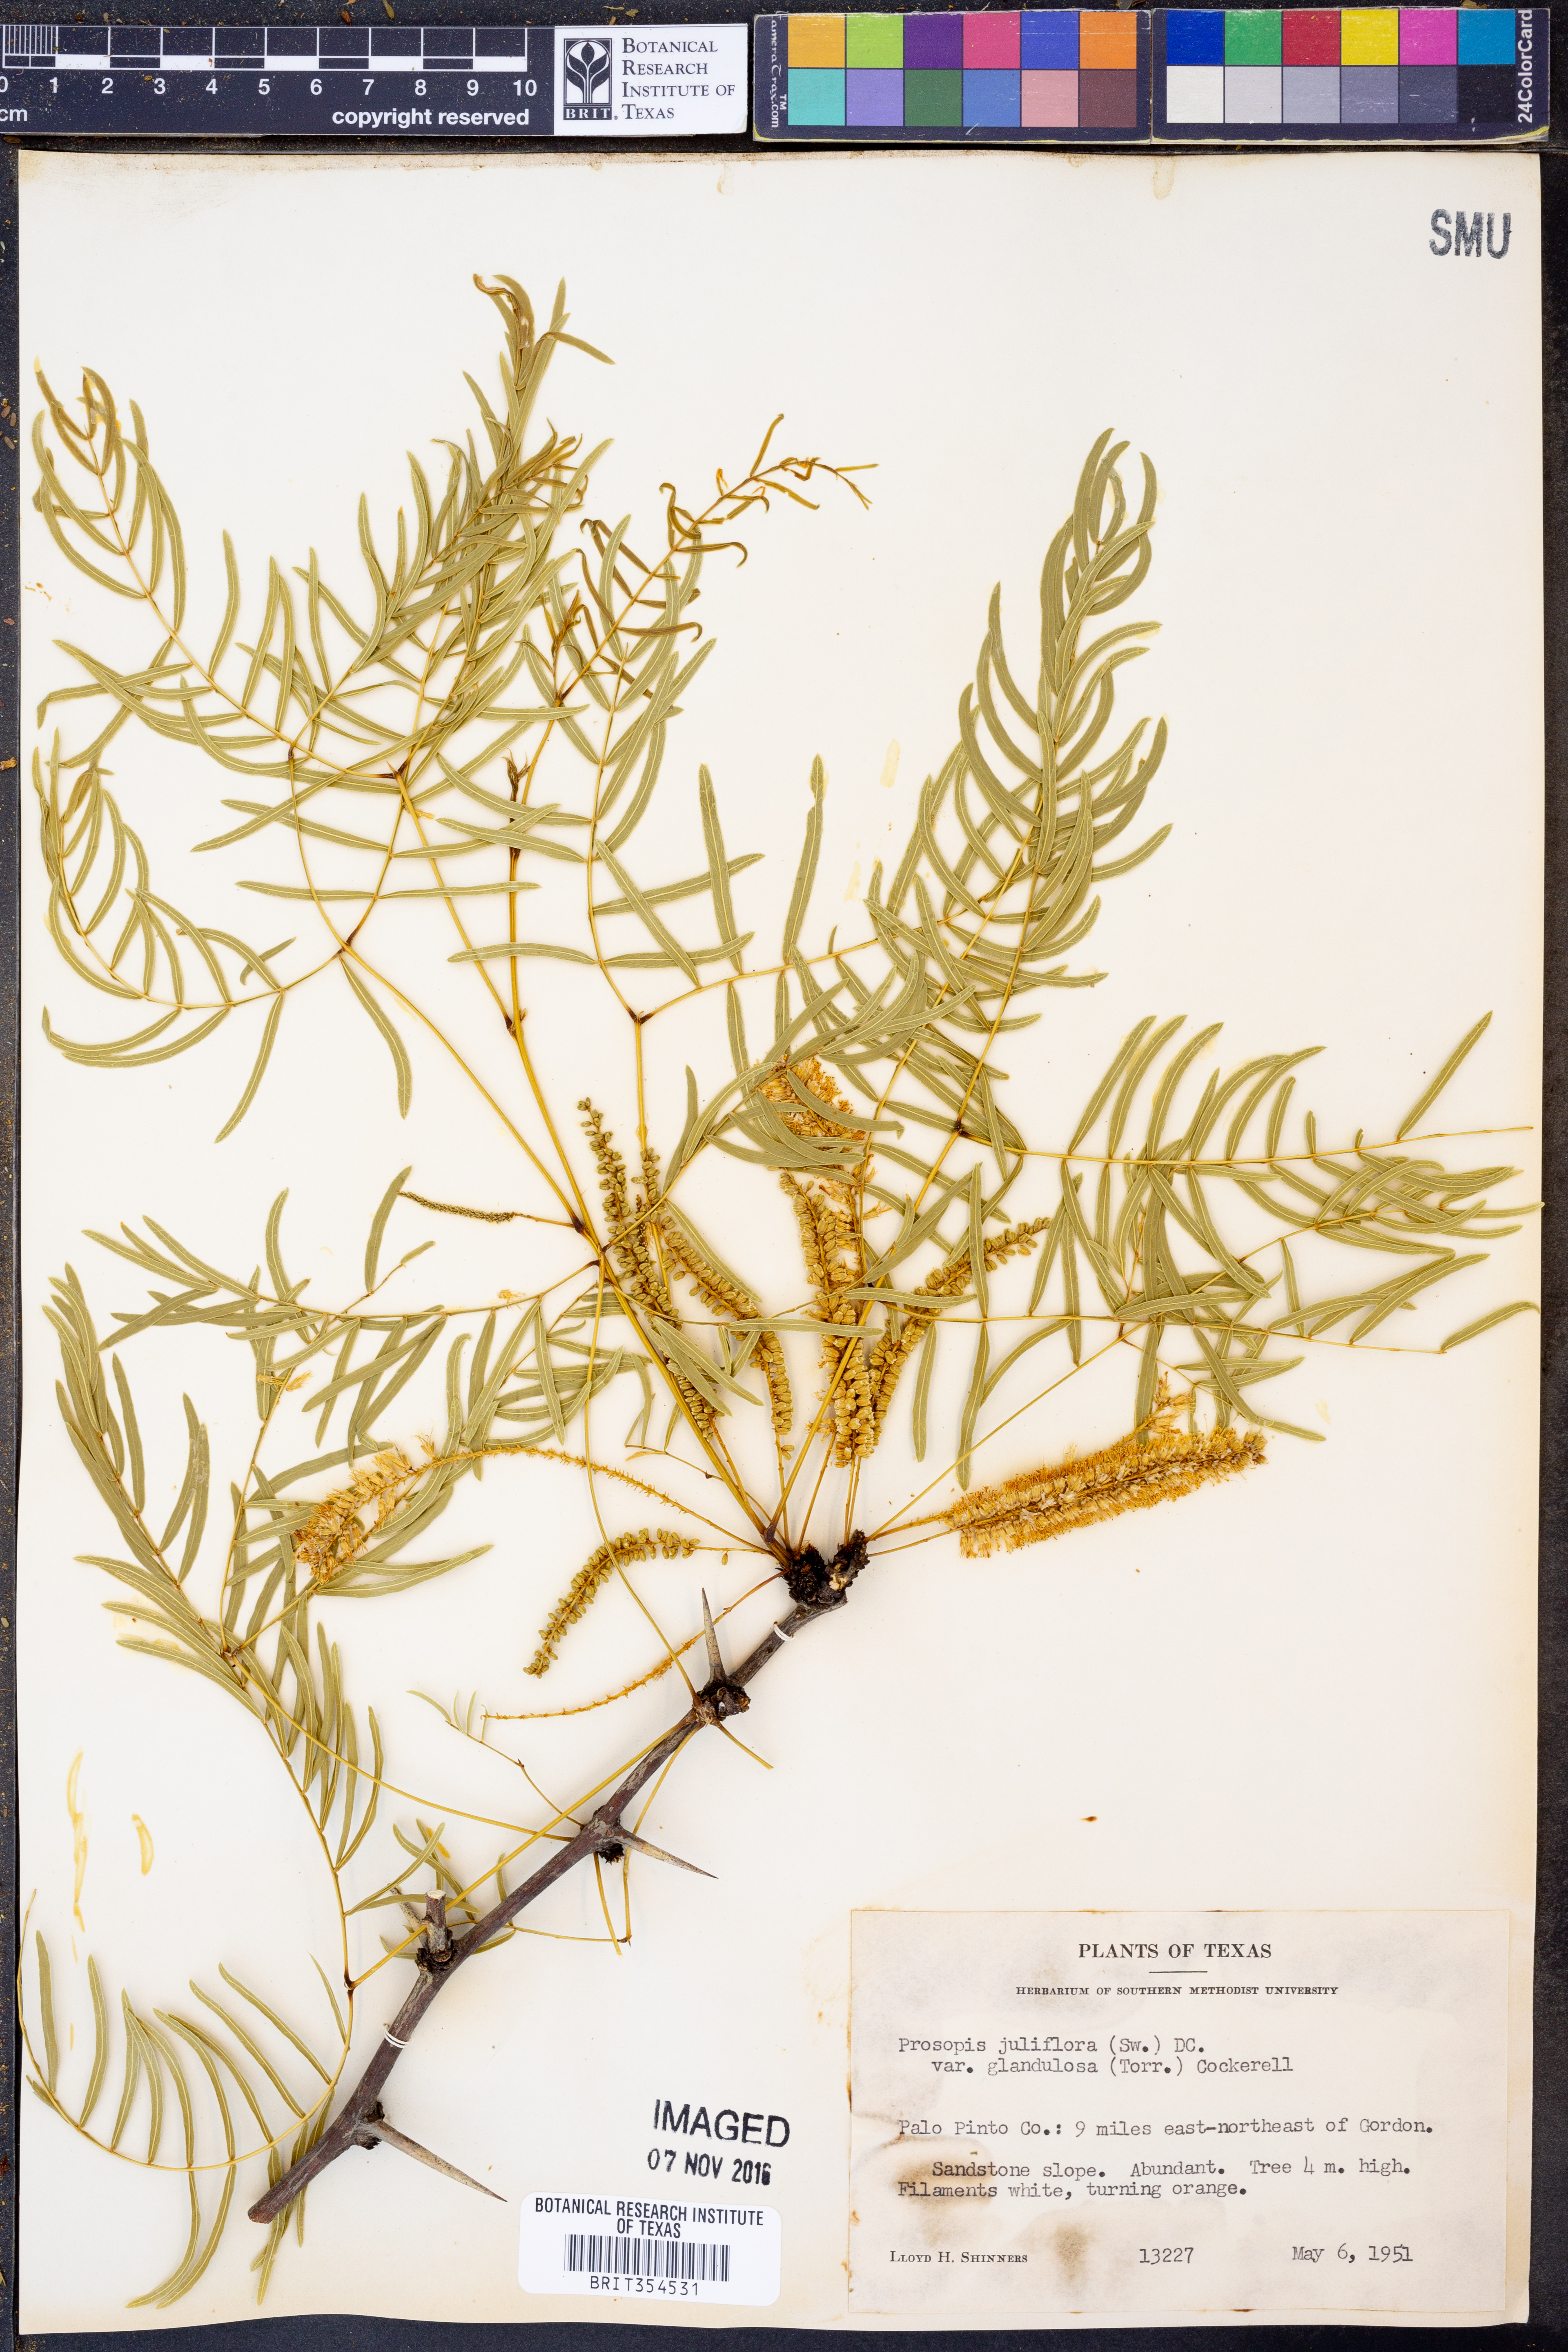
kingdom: Plantae
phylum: Tracheophyta
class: Magnoliopsida
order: Fabales
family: Fabaceae
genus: Prosopis
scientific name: Prosopis glandulosa
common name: Honey mesquite
